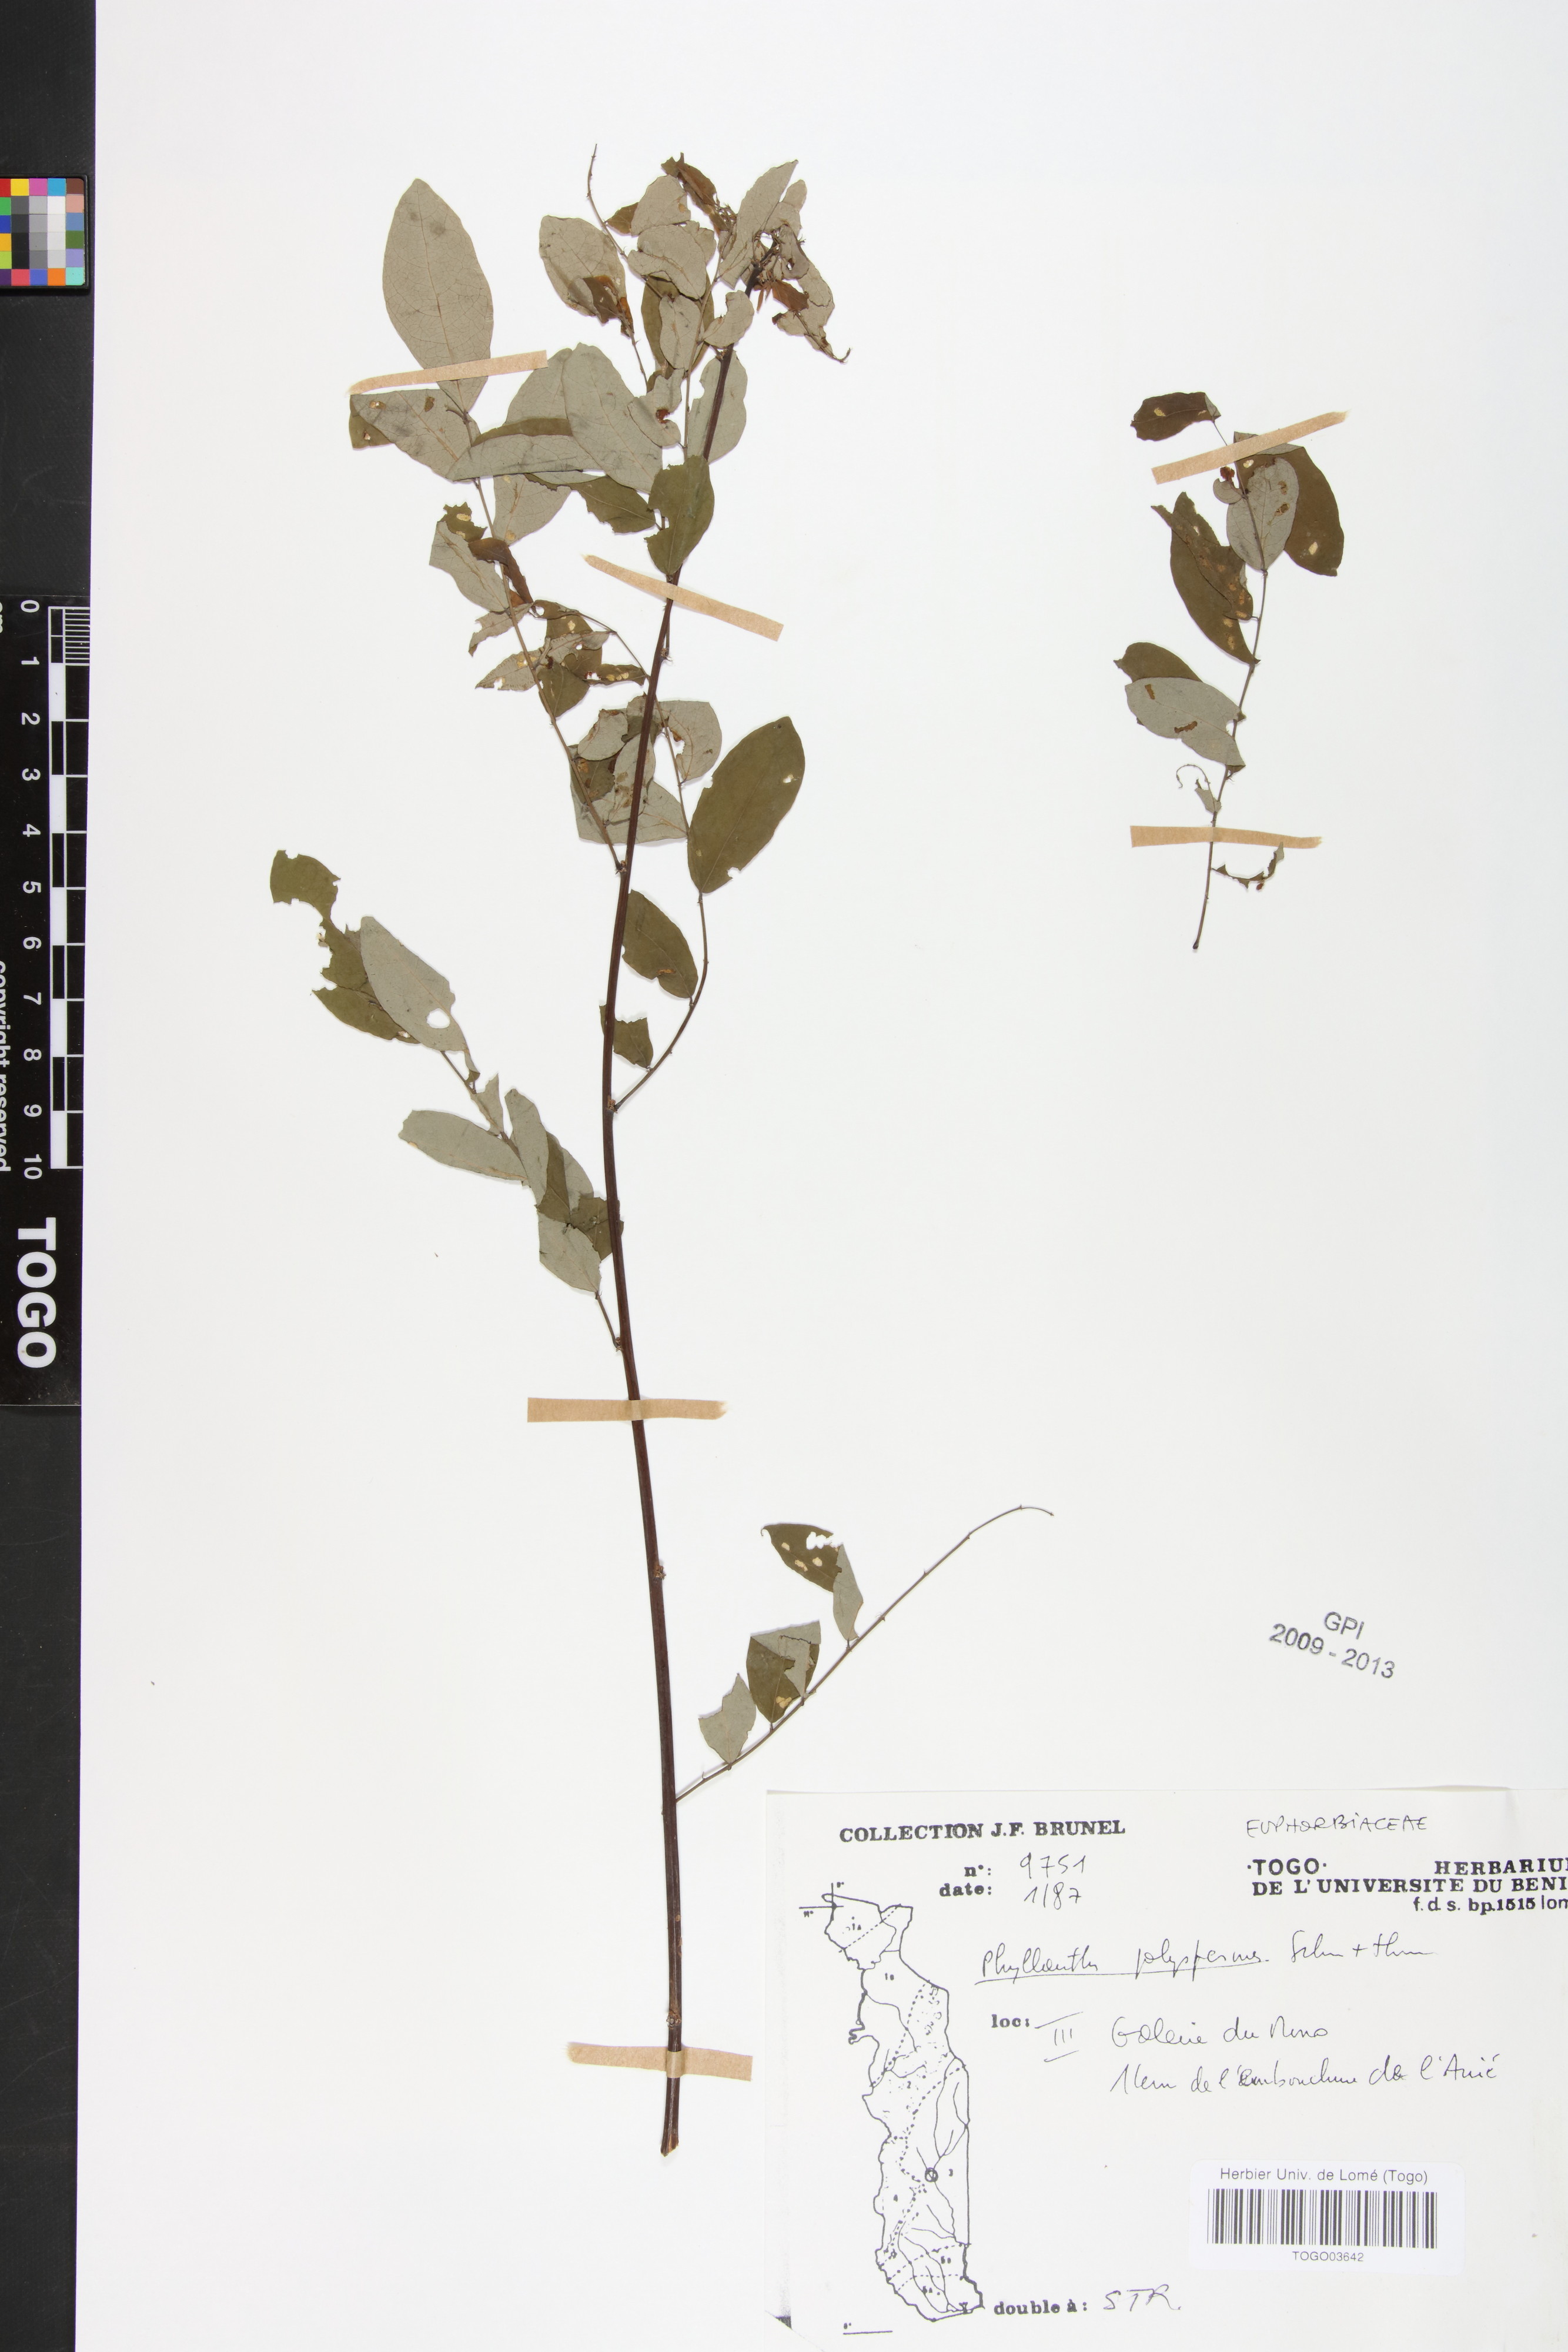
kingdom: Plantae
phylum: Tracheophyta
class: Magnoliopsida
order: Malpighiales
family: Phyllanthaceae
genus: Phyllanthus
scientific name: Phyllanthus polyspermus
